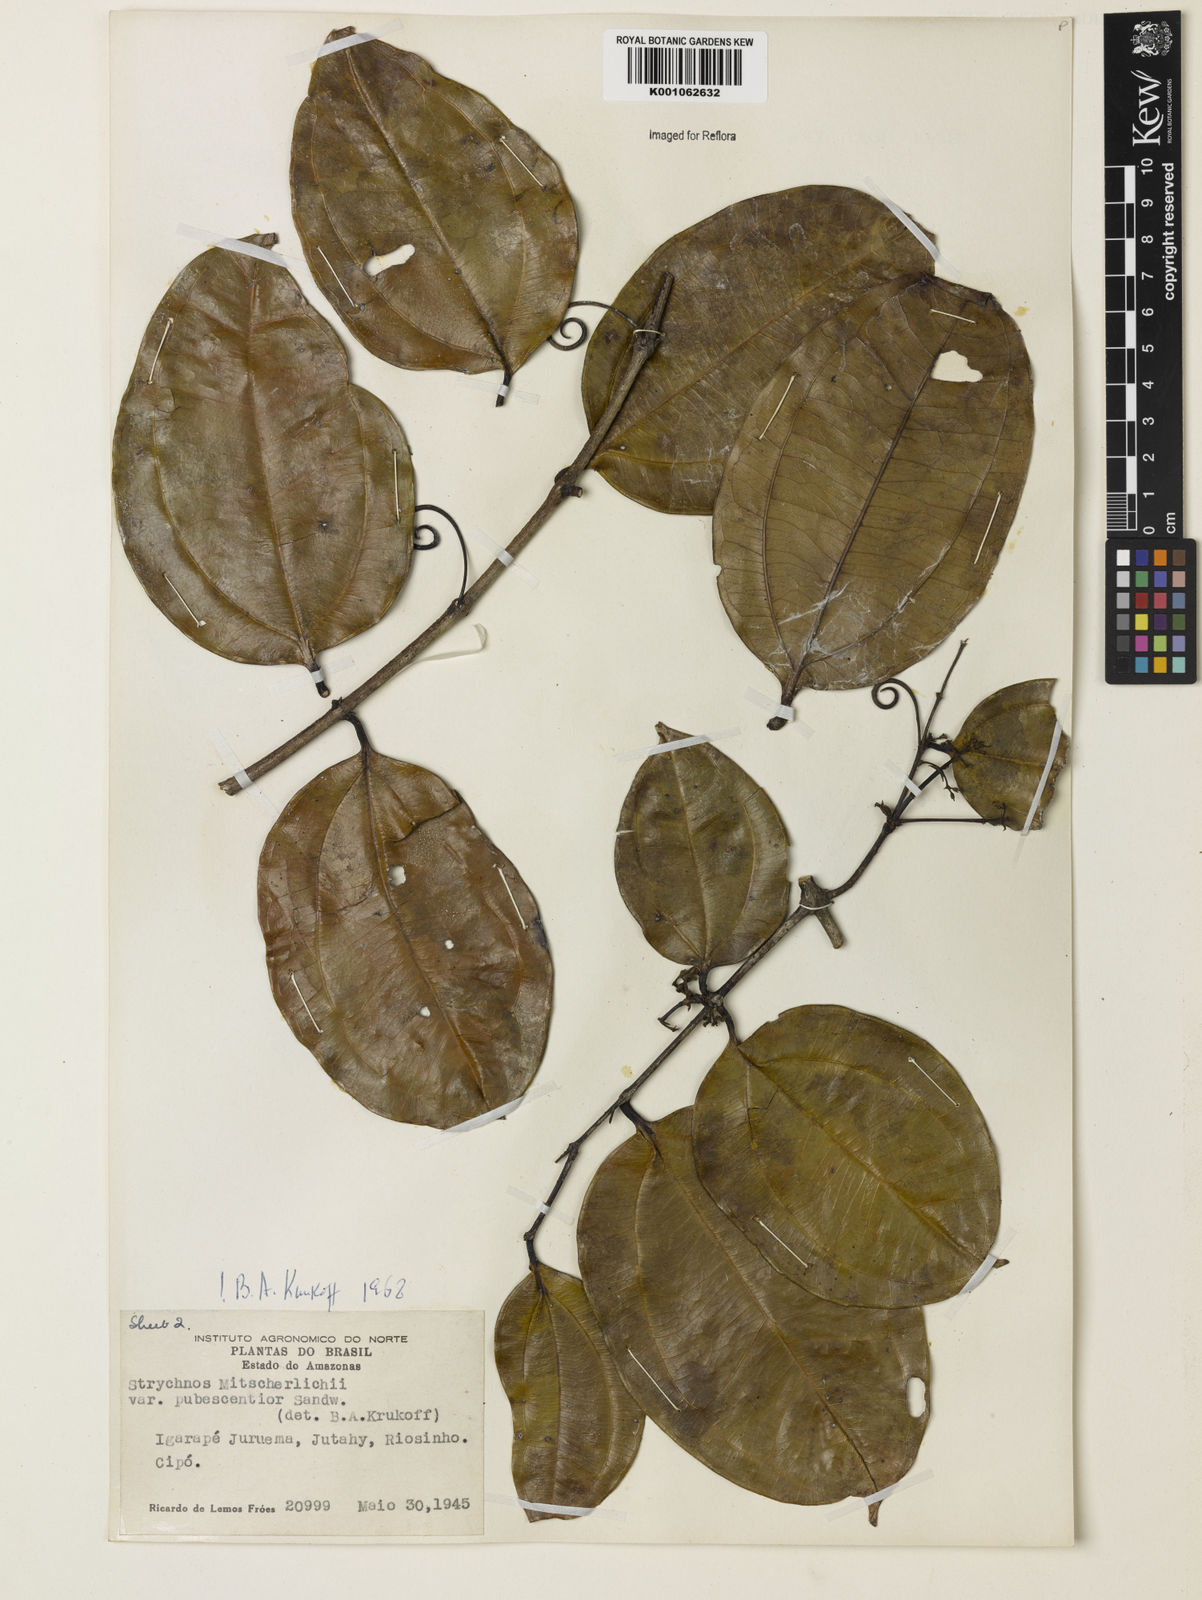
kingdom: Plantae
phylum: Tracheophyta
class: Magnoliopsida
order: Gentianales
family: Loganiaceae
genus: Strychnos
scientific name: Strychnos mitscherlichii
